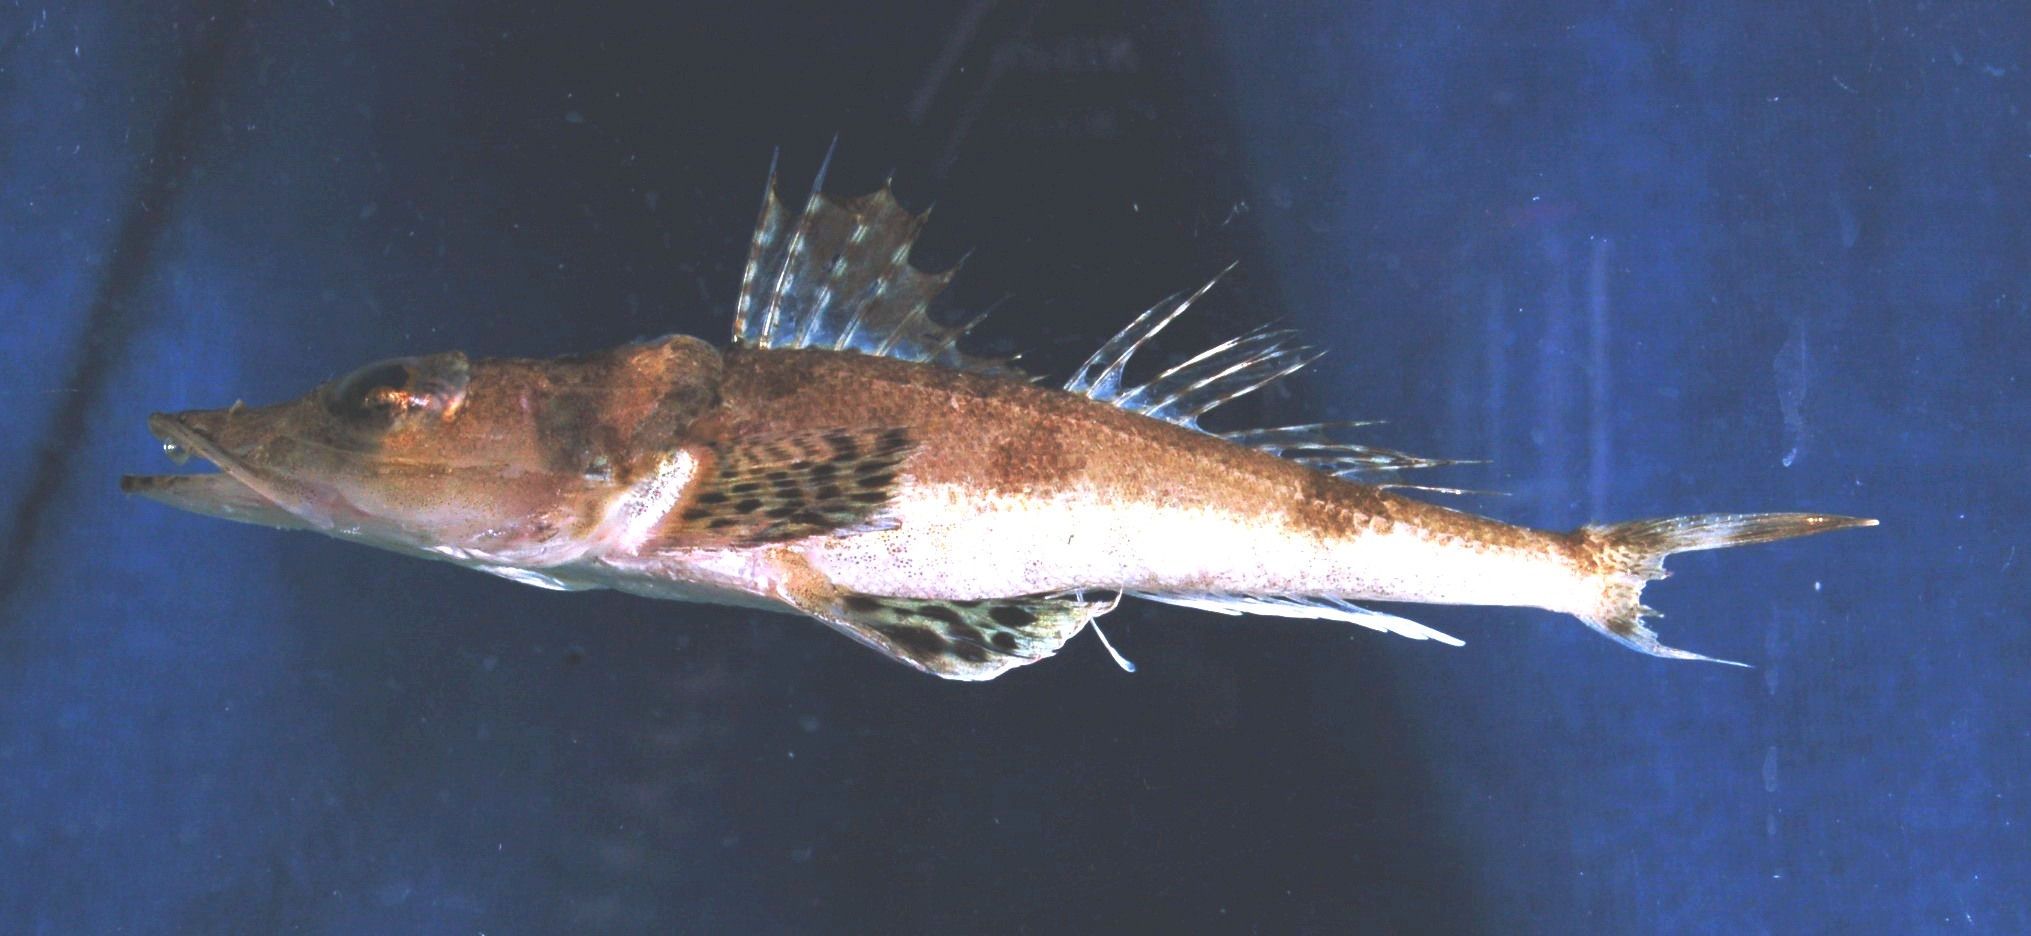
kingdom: Animalia
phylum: Chordata
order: Scorpaeniformes
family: Platycephalidae
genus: Rogadius
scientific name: Rogadius pristiger
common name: Thorny flathead
